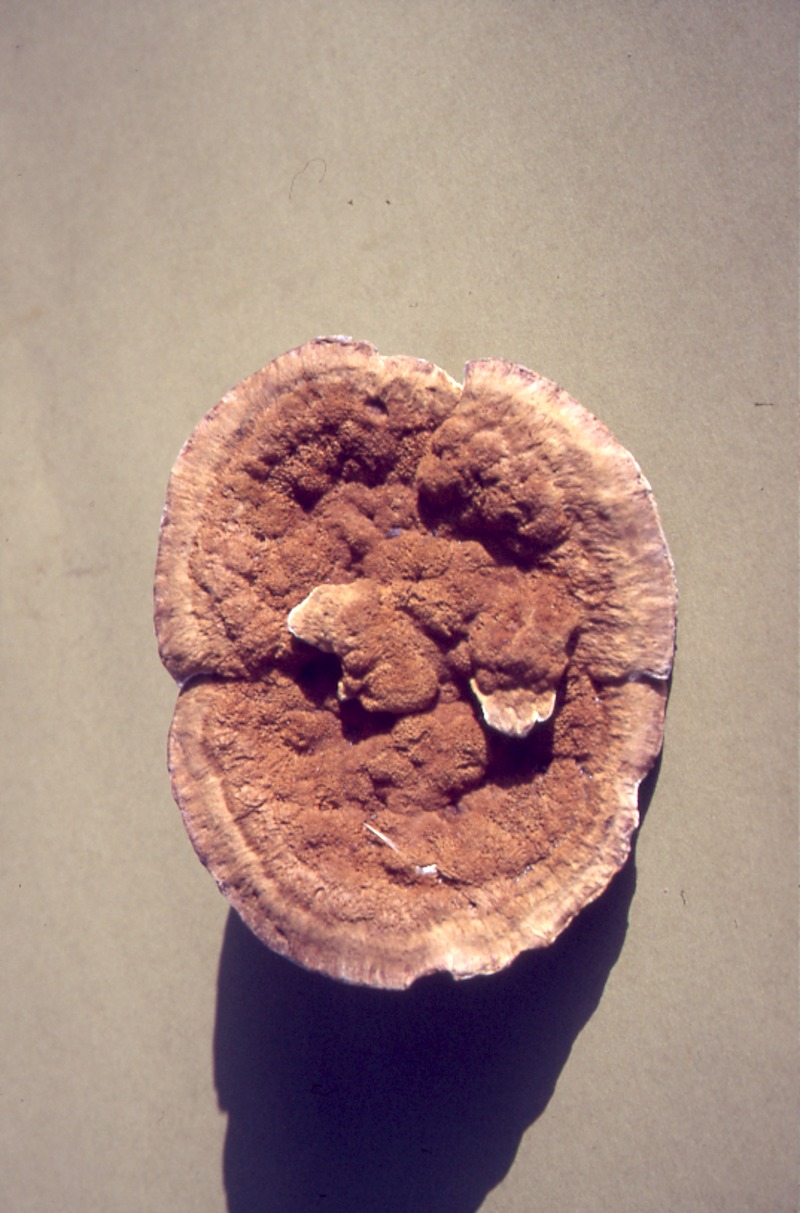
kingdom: Fungi
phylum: Basidiomycota
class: Agaricomycetes
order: Hymenochaetales
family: Hymenochaetaceae
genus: Coltricia
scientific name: Coltricia montagnei
